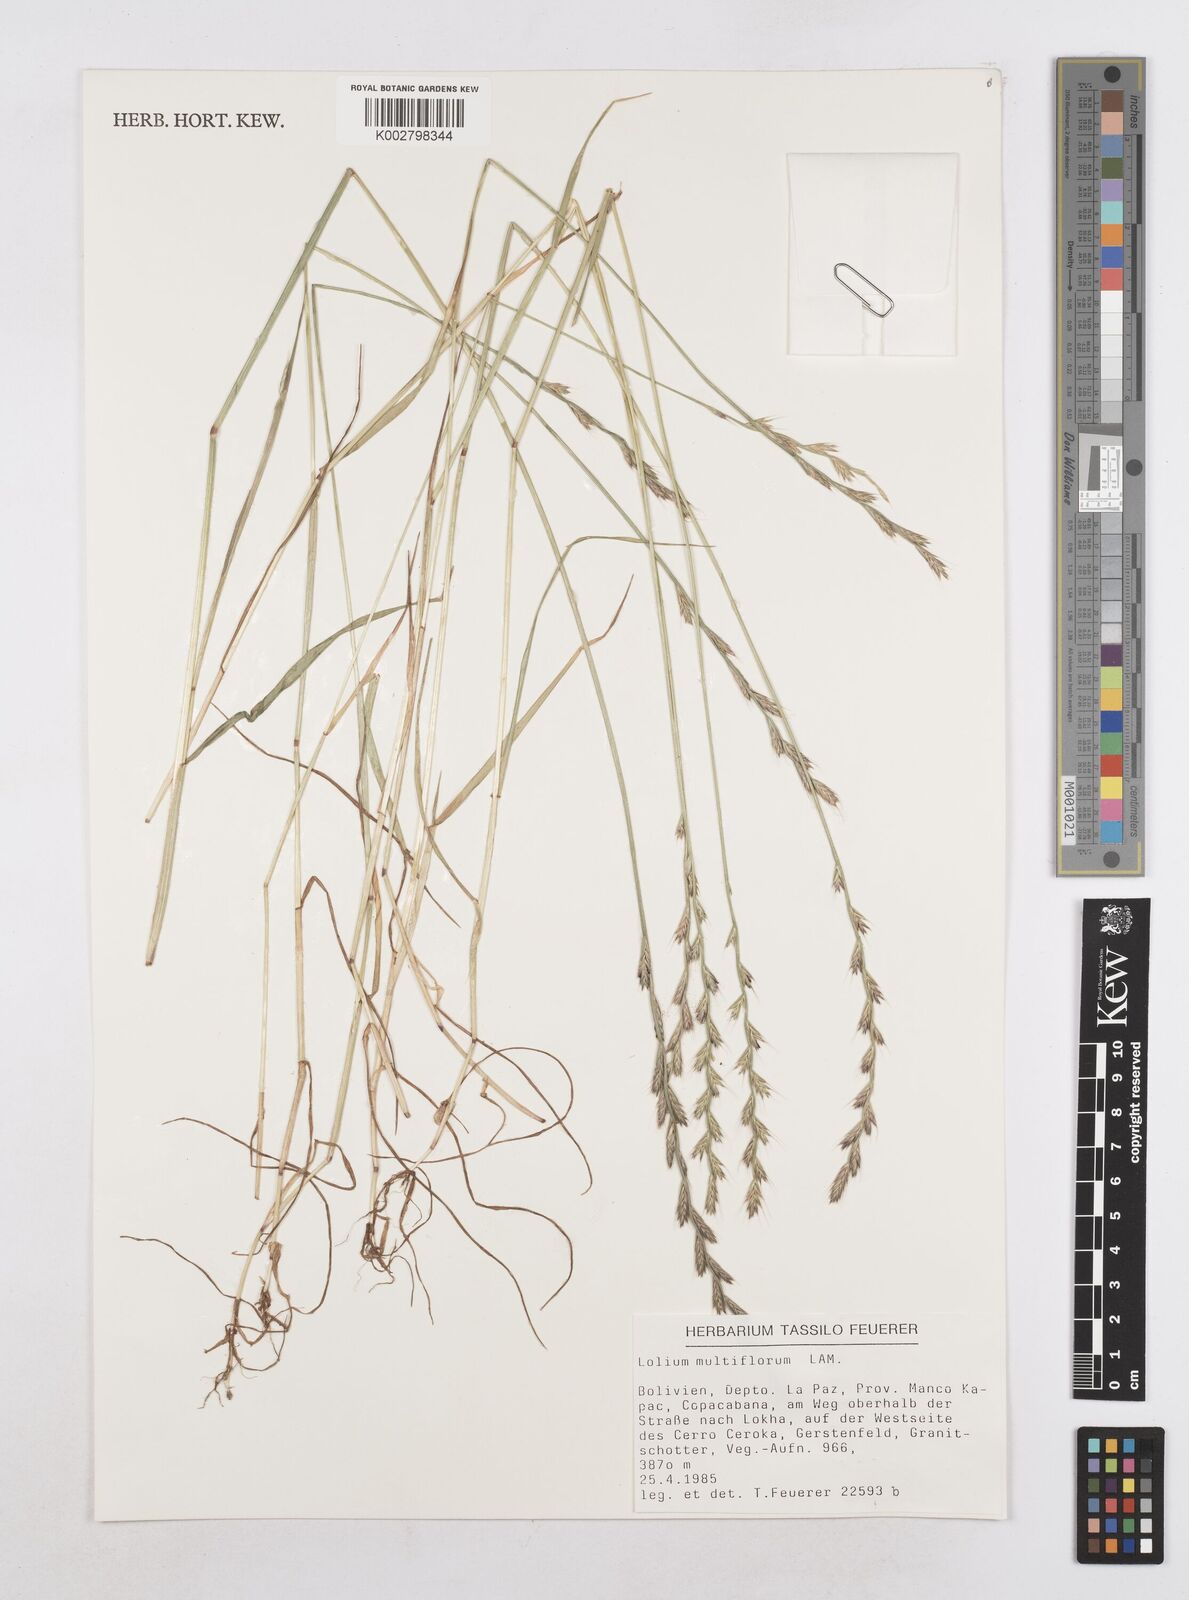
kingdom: Plantae
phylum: Tracheophyta
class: Liliopsida
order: Poales
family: Poaceae
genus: Lolium
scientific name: Lolium multiflorum
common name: Annual ryegrass
